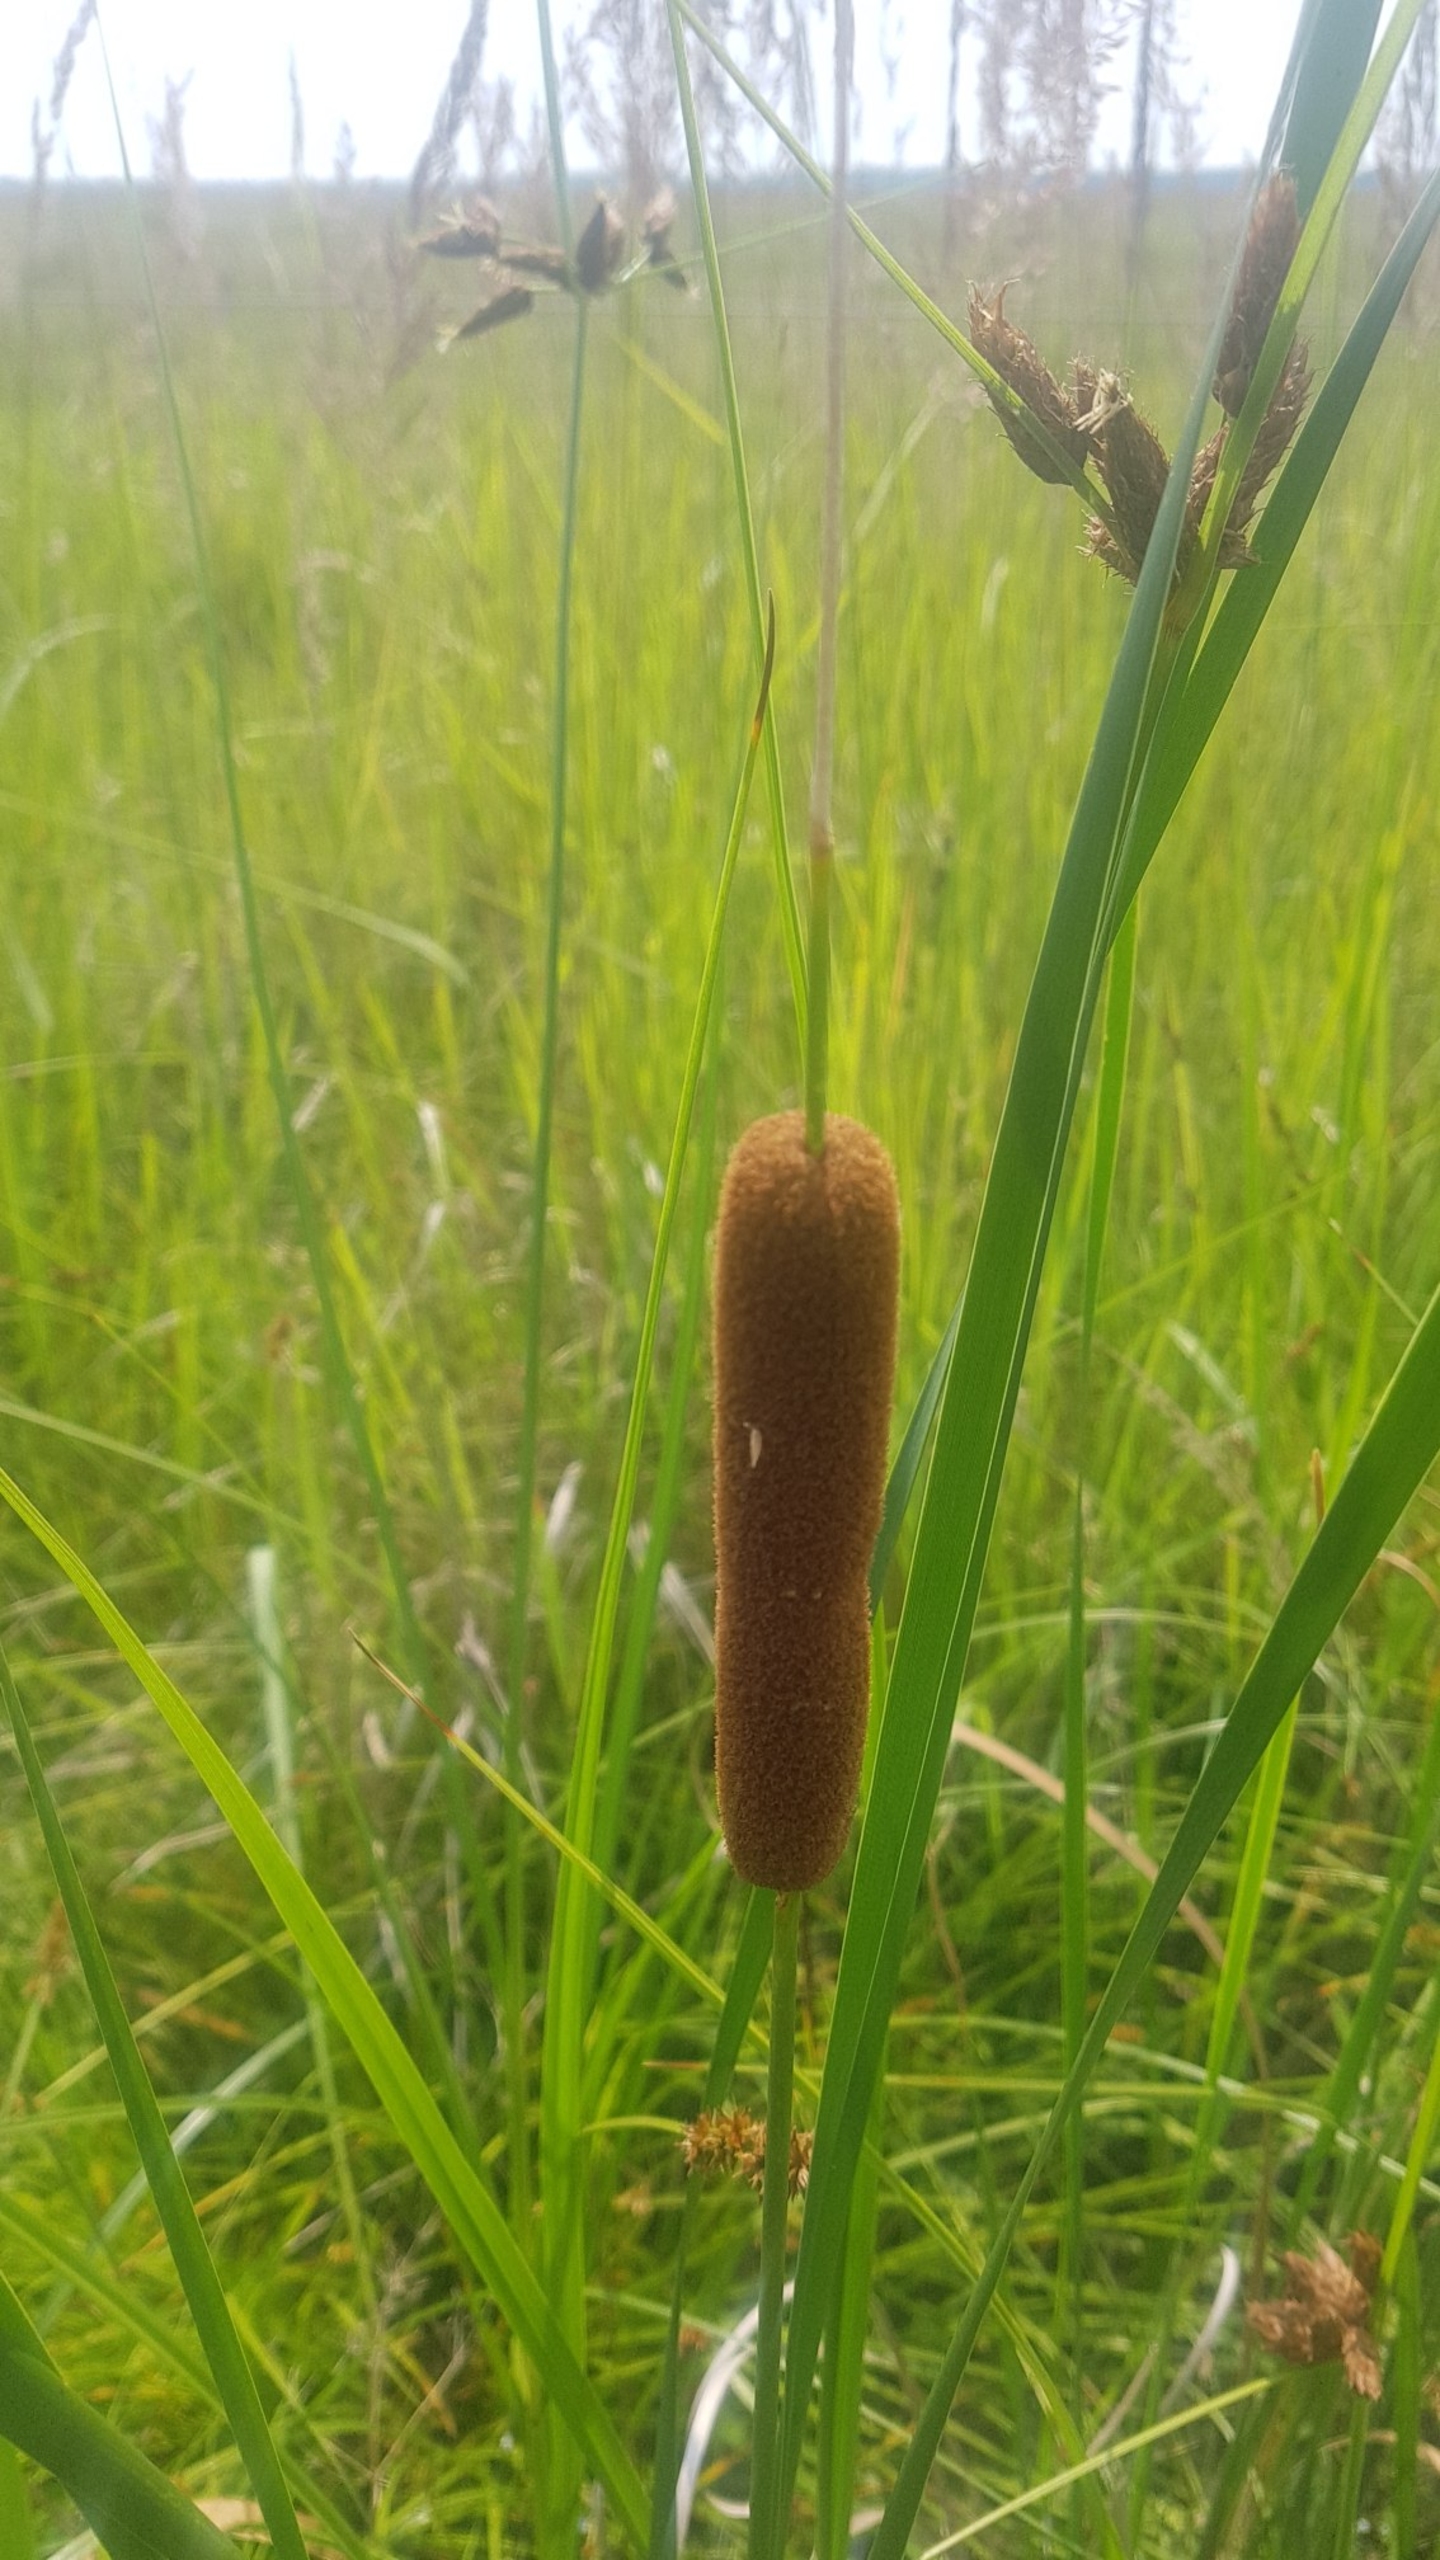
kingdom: Plantae
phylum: Tracheophyta
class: Liliopsida
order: Poales
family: Typhaceae
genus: Typha
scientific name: Typha angustifolia
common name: Smalbladet dunhammer
